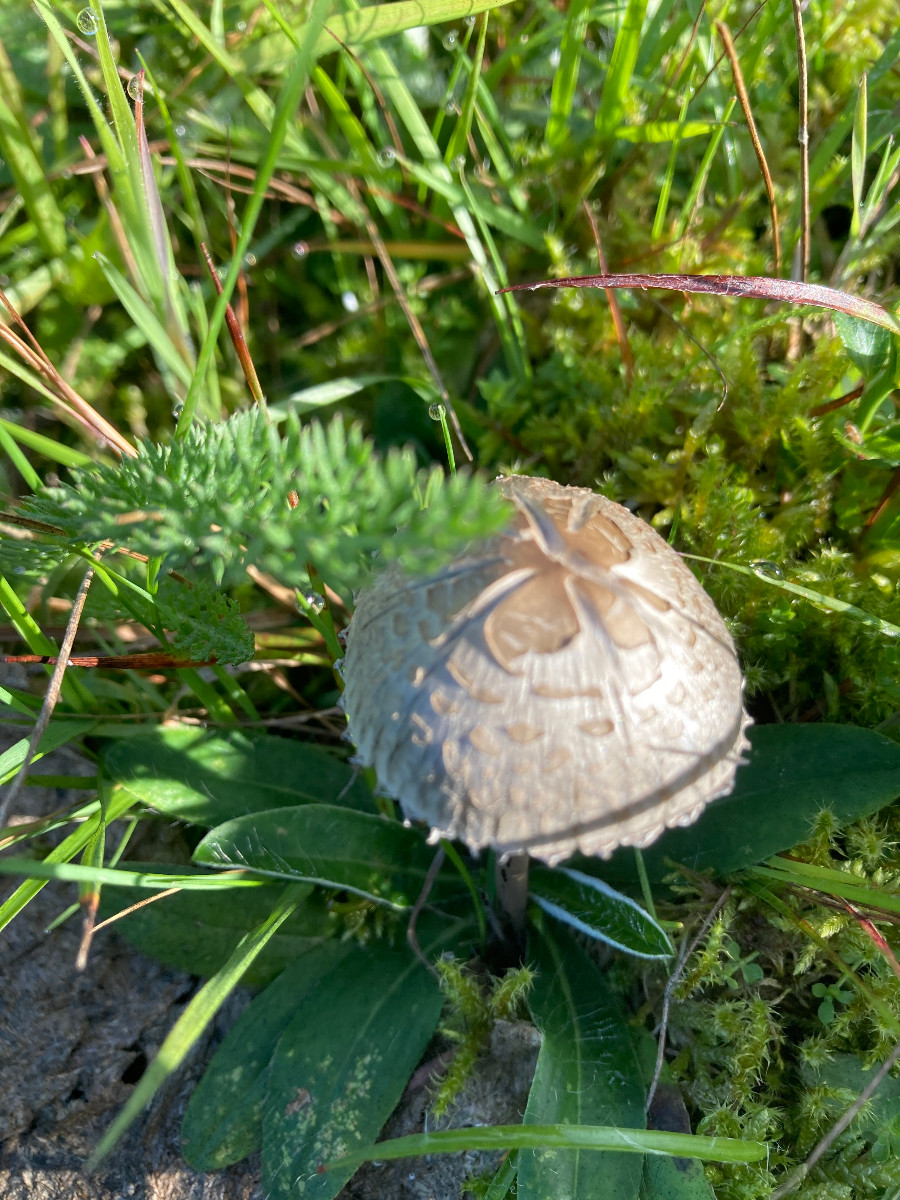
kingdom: Fungi
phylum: Basidiomycota
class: Agaricomycetes
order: Agaricales
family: Bolbitiaceae
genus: Panaeolus
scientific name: Panaeolus papilionaceus
